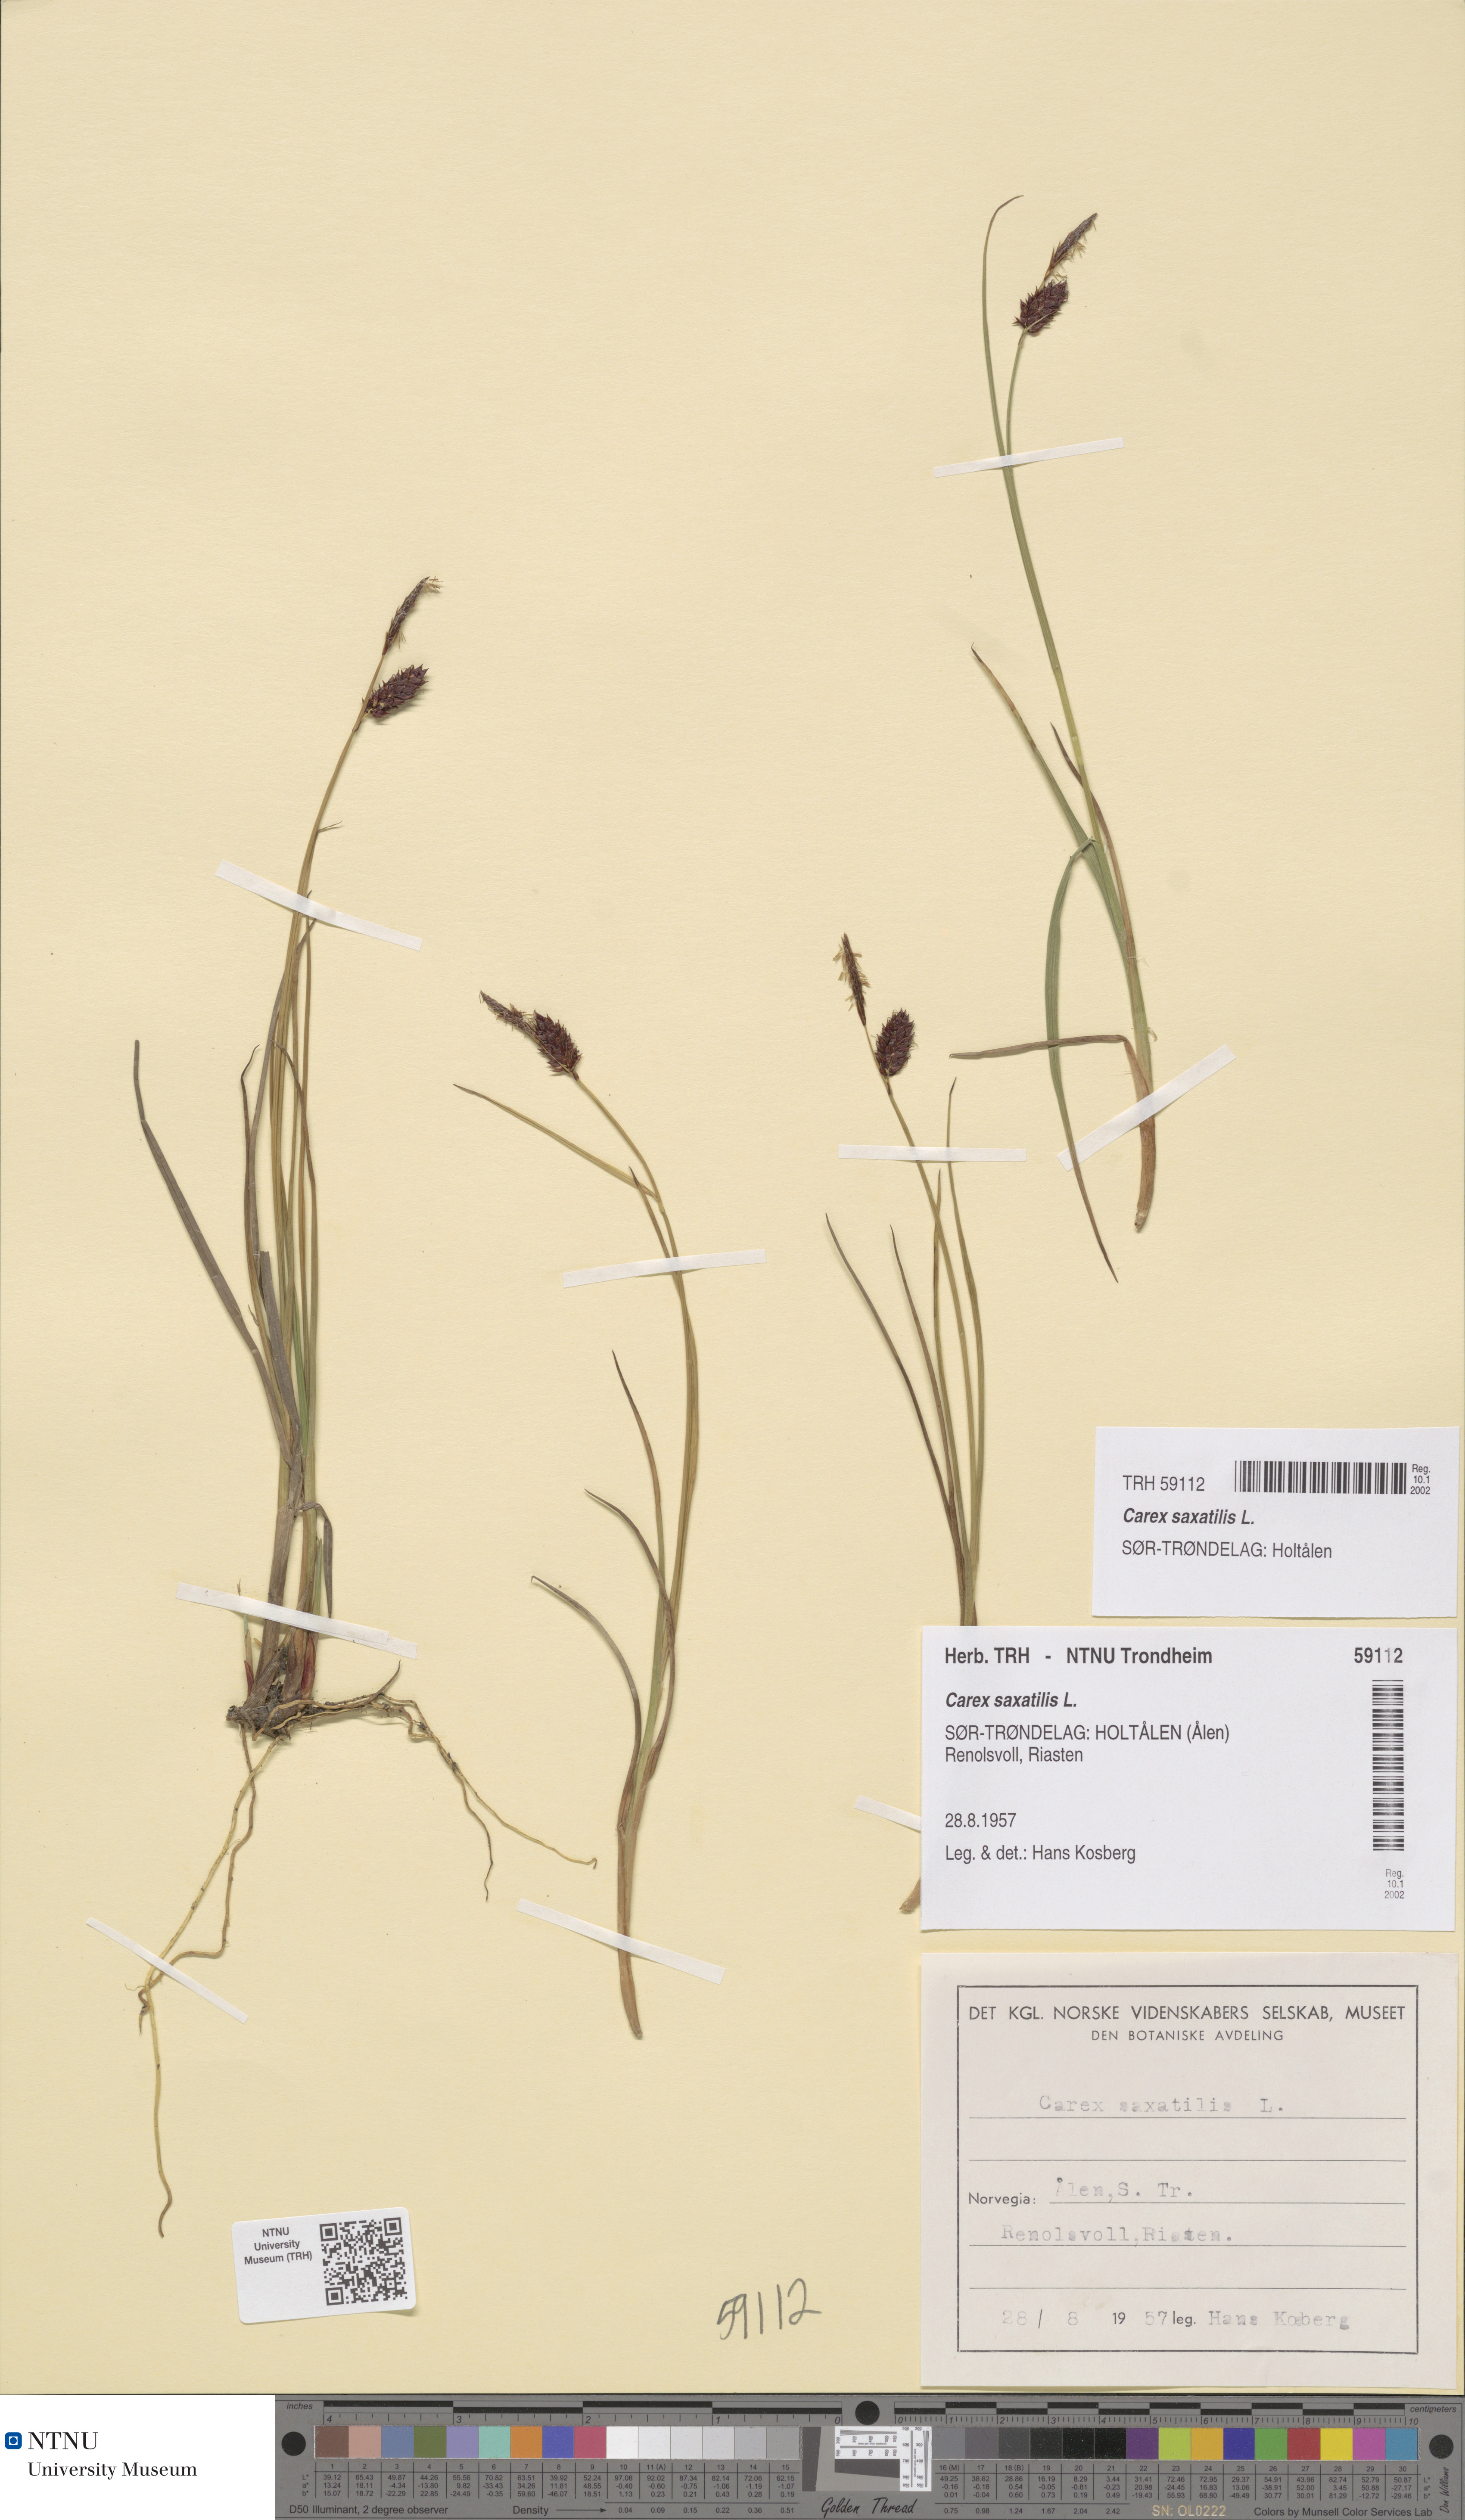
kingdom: Plantae
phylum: Tracheophyta
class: Liliopsida
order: Poales
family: Cyperaceae
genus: Carex
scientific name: Carex saxatilis
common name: Russet sedge
